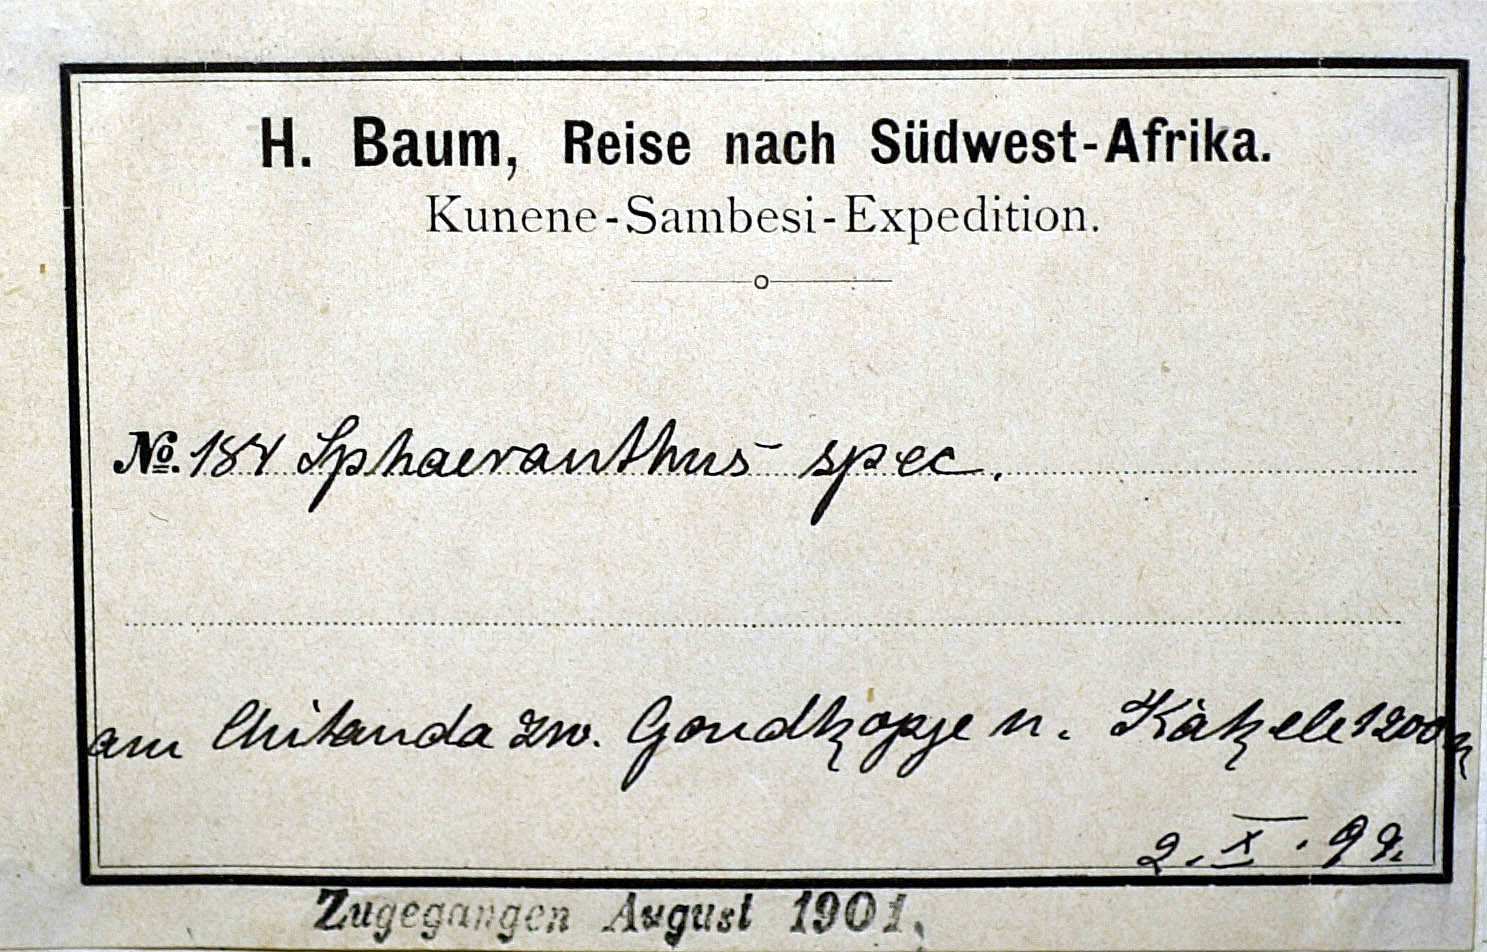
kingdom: Plantae
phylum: Tracheophyta
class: Magnoliopsida
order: Asterales
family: Asteraceae
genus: Sphaeranthus
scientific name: Sphaeranthus flexuosus
